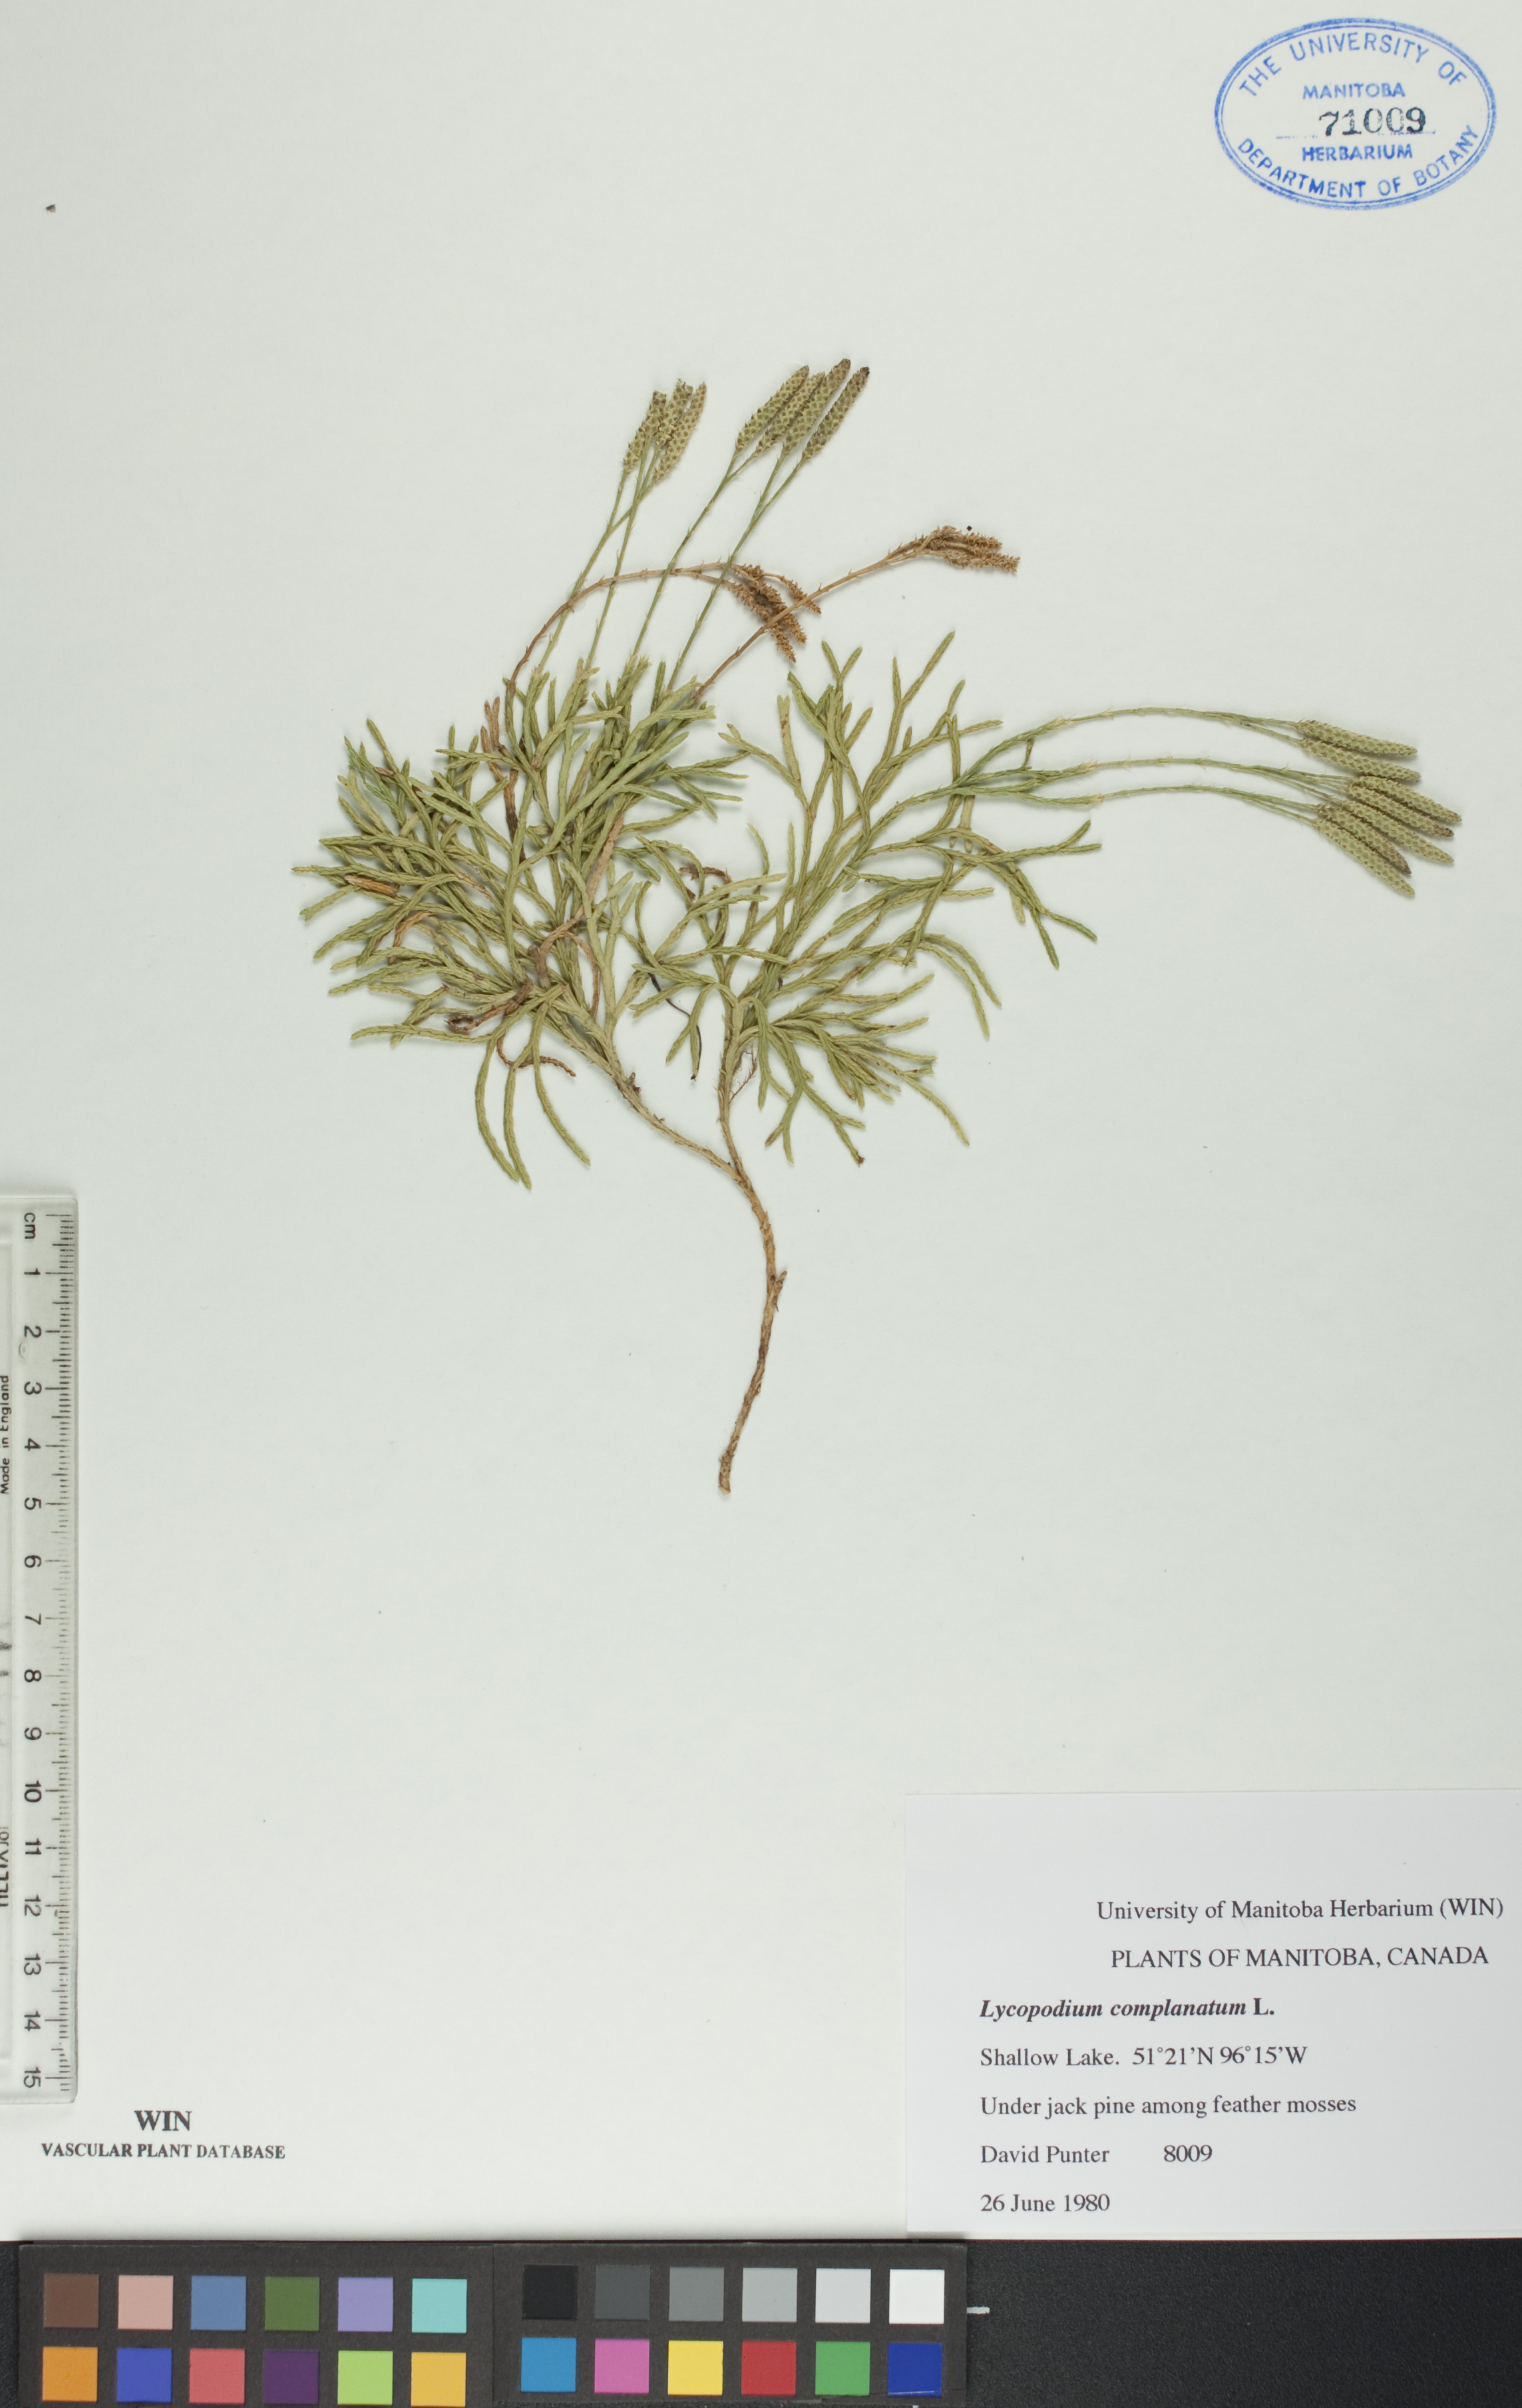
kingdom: Plantae
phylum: Tracheophyta
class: Lycopodiopsida
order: Lycopodiales
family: Lycopodiaceae
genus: Diphasiastrum
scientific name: Diphasiastrum complanatum
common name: Northern running-pine
